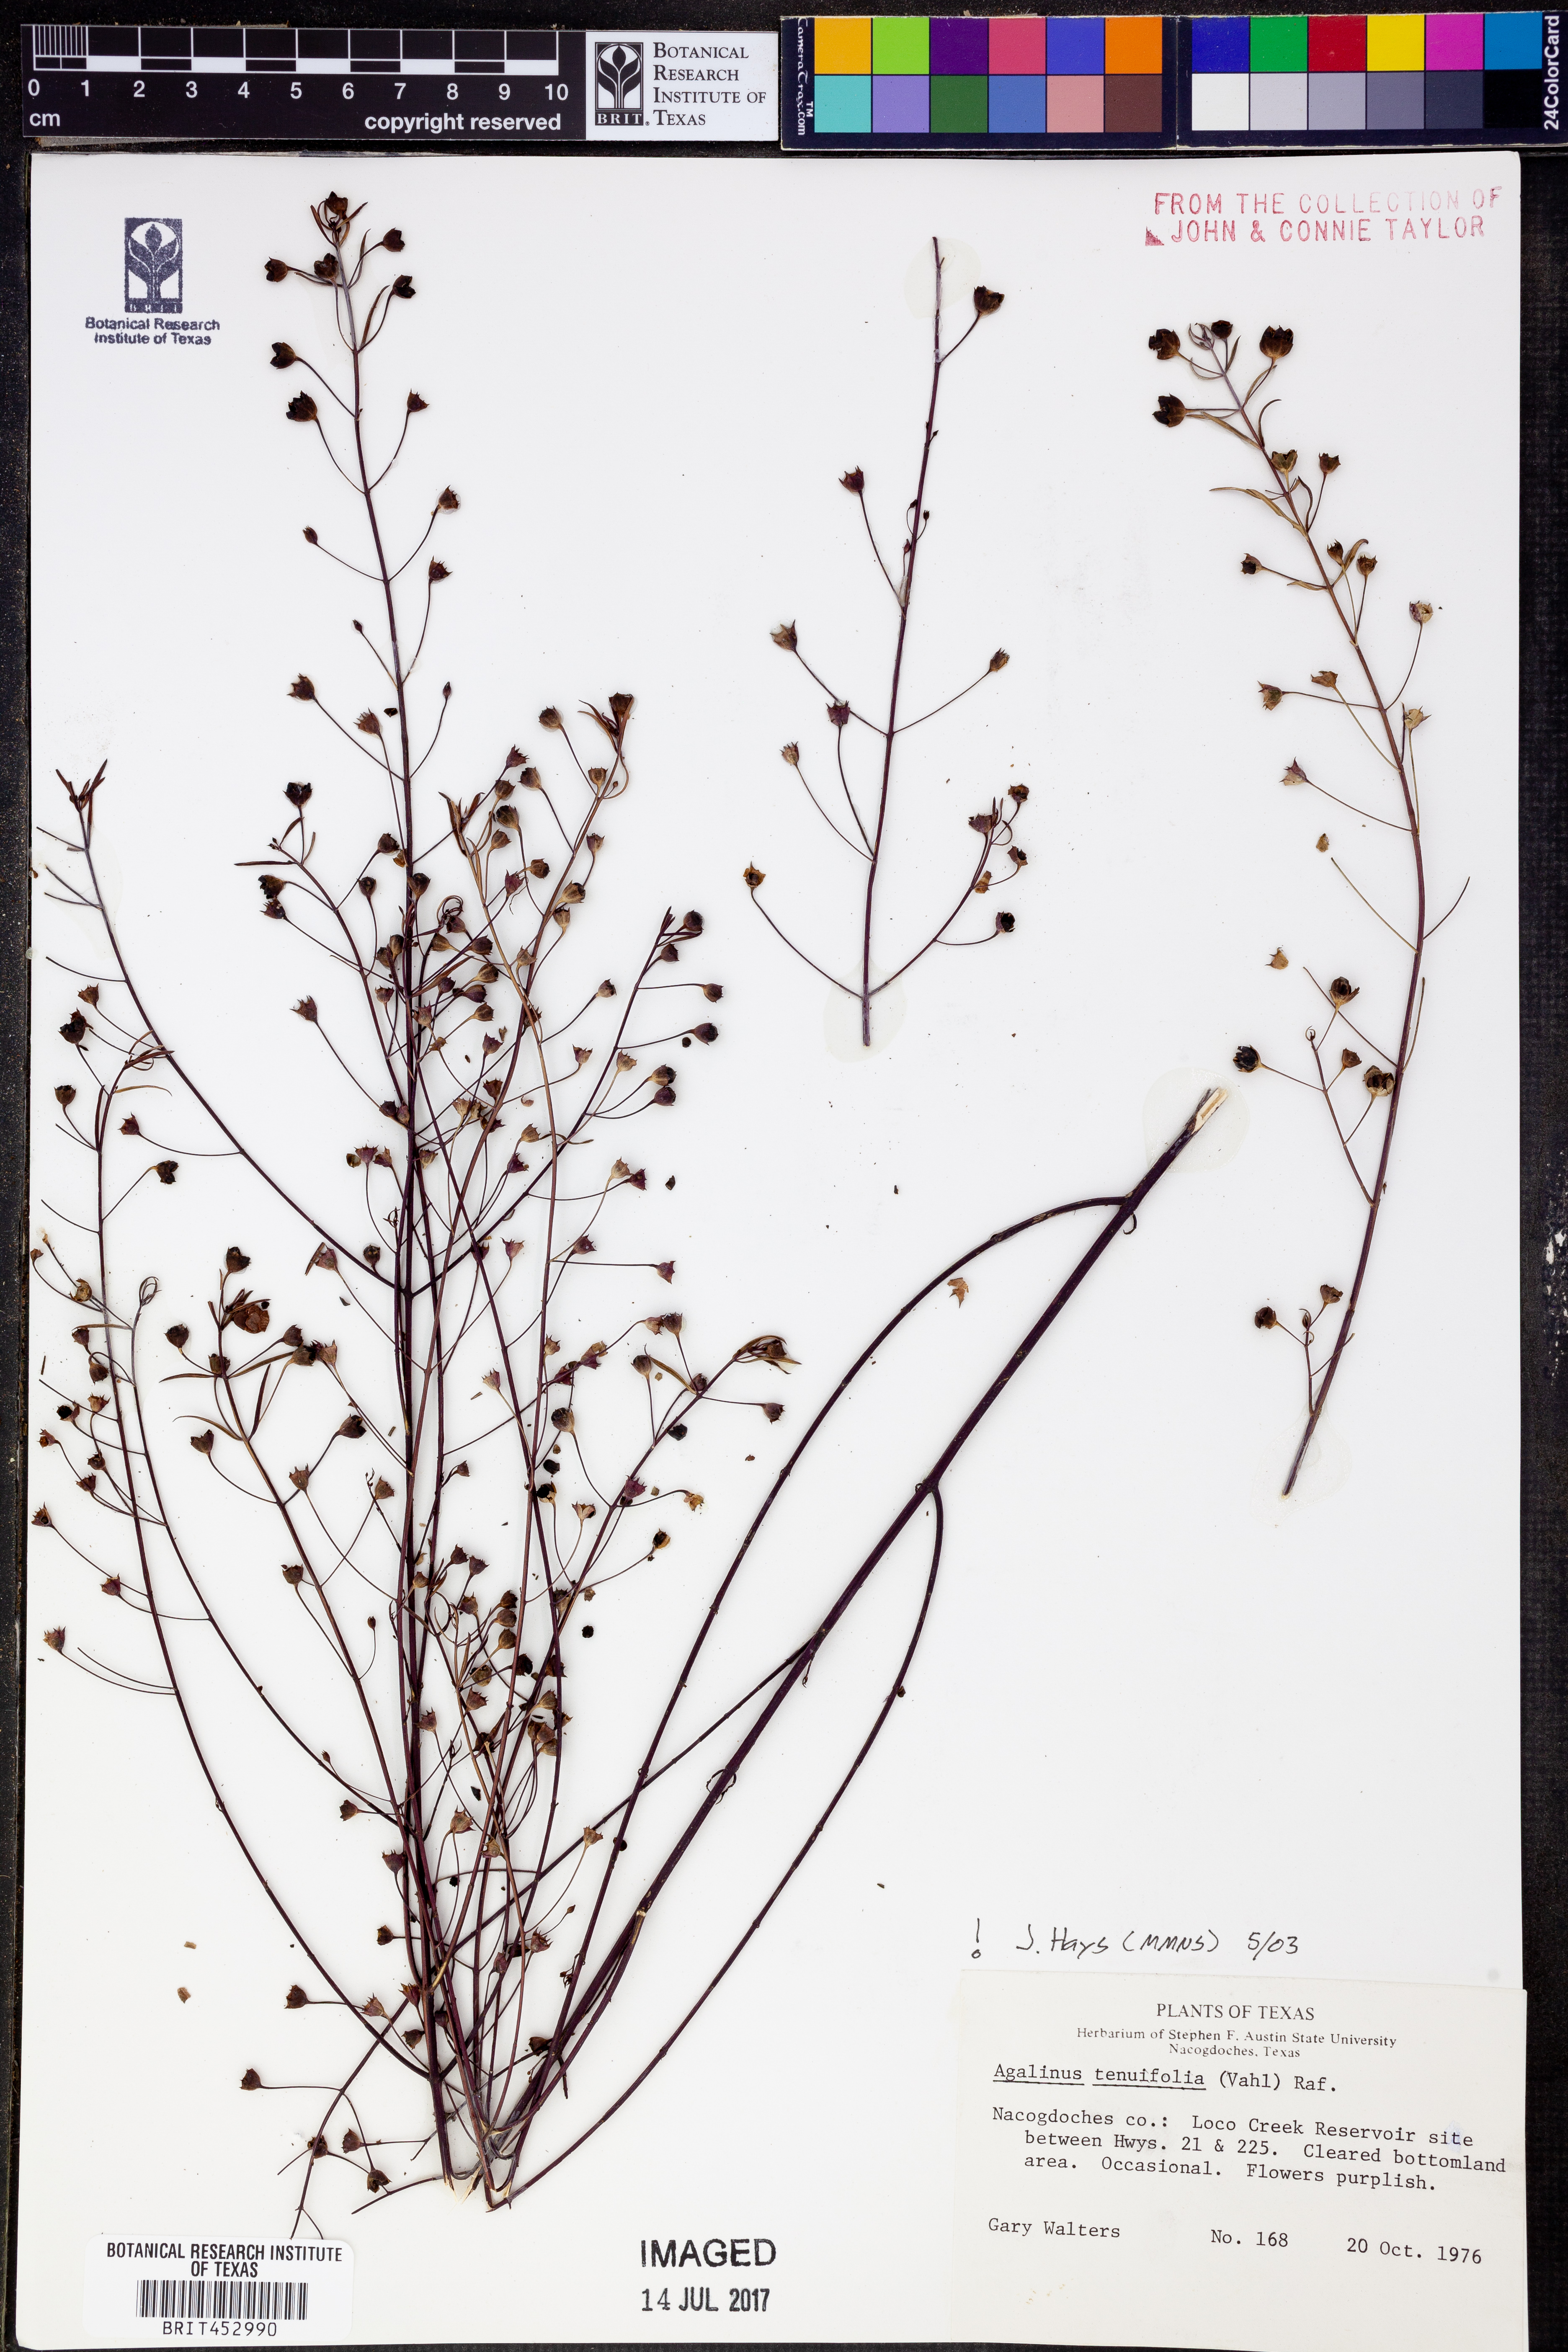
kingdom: Plantae
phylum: Tracheophyta
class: Magnoliopsida
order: Lamiales
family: Orobanchaceae
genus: Agalinis
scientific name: Agalinis tenuifolia
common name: Slender agalinis
